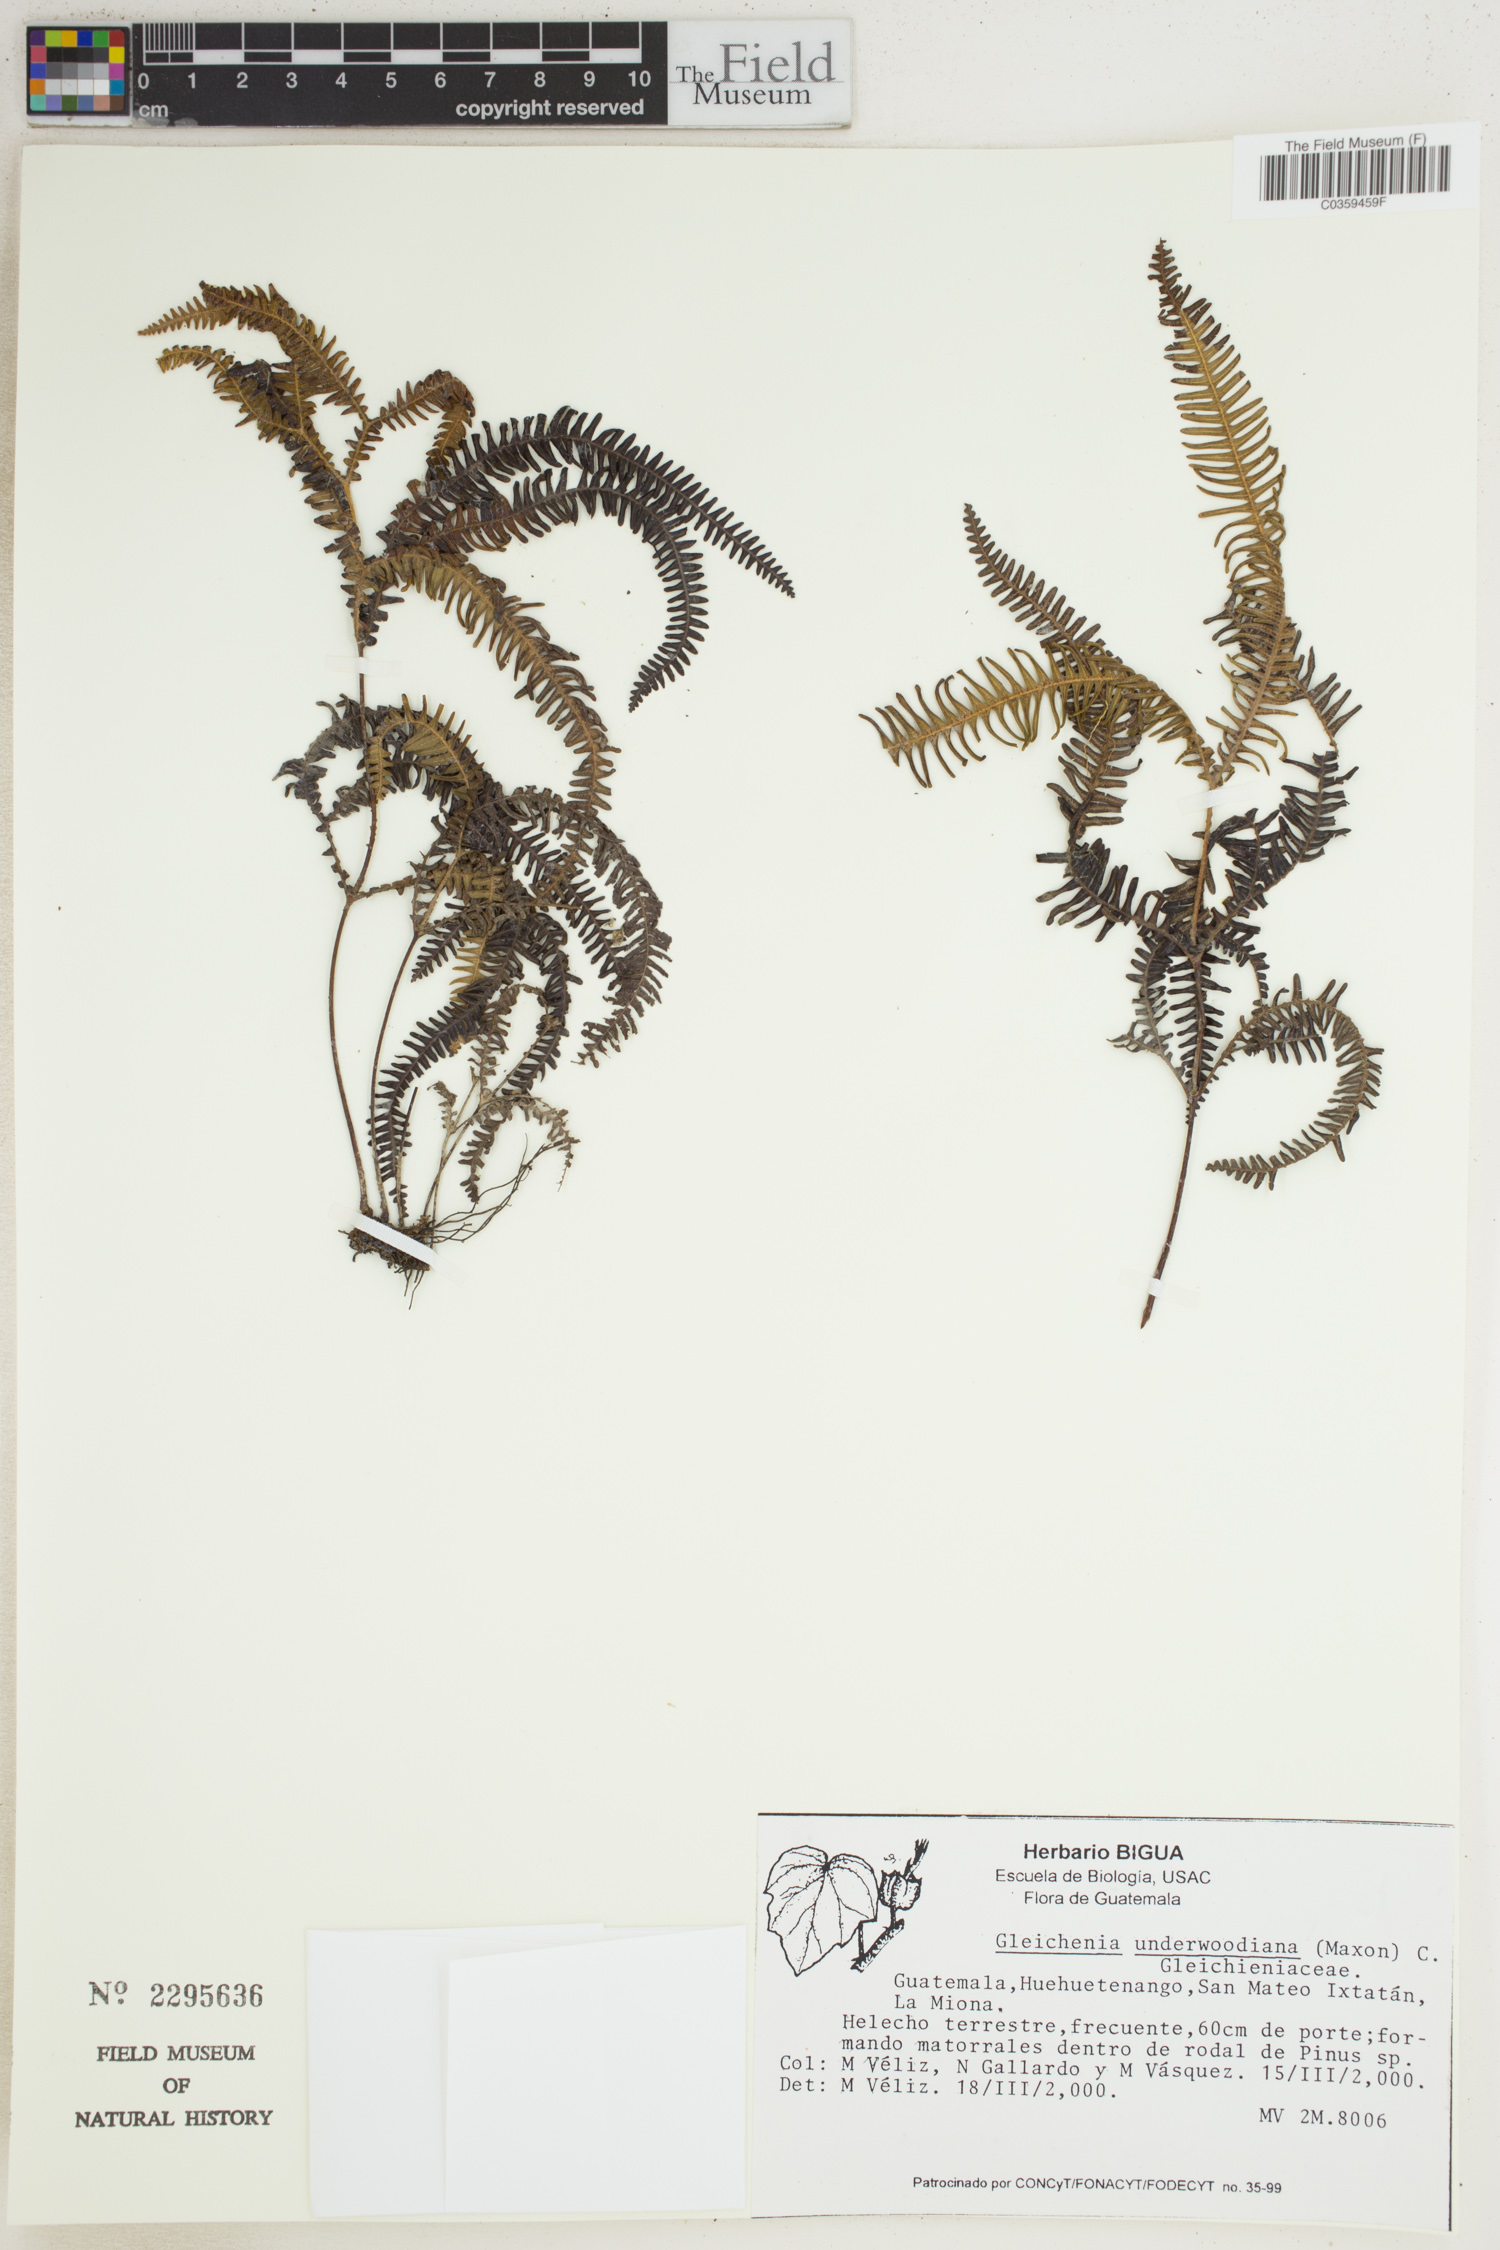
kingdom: Plantae
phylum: Tracheophyta
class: Polypodiopsida
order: Gleicheniales
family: Gleicheniaceae
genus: Sticherus
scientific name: Sticherus underwoodianus
